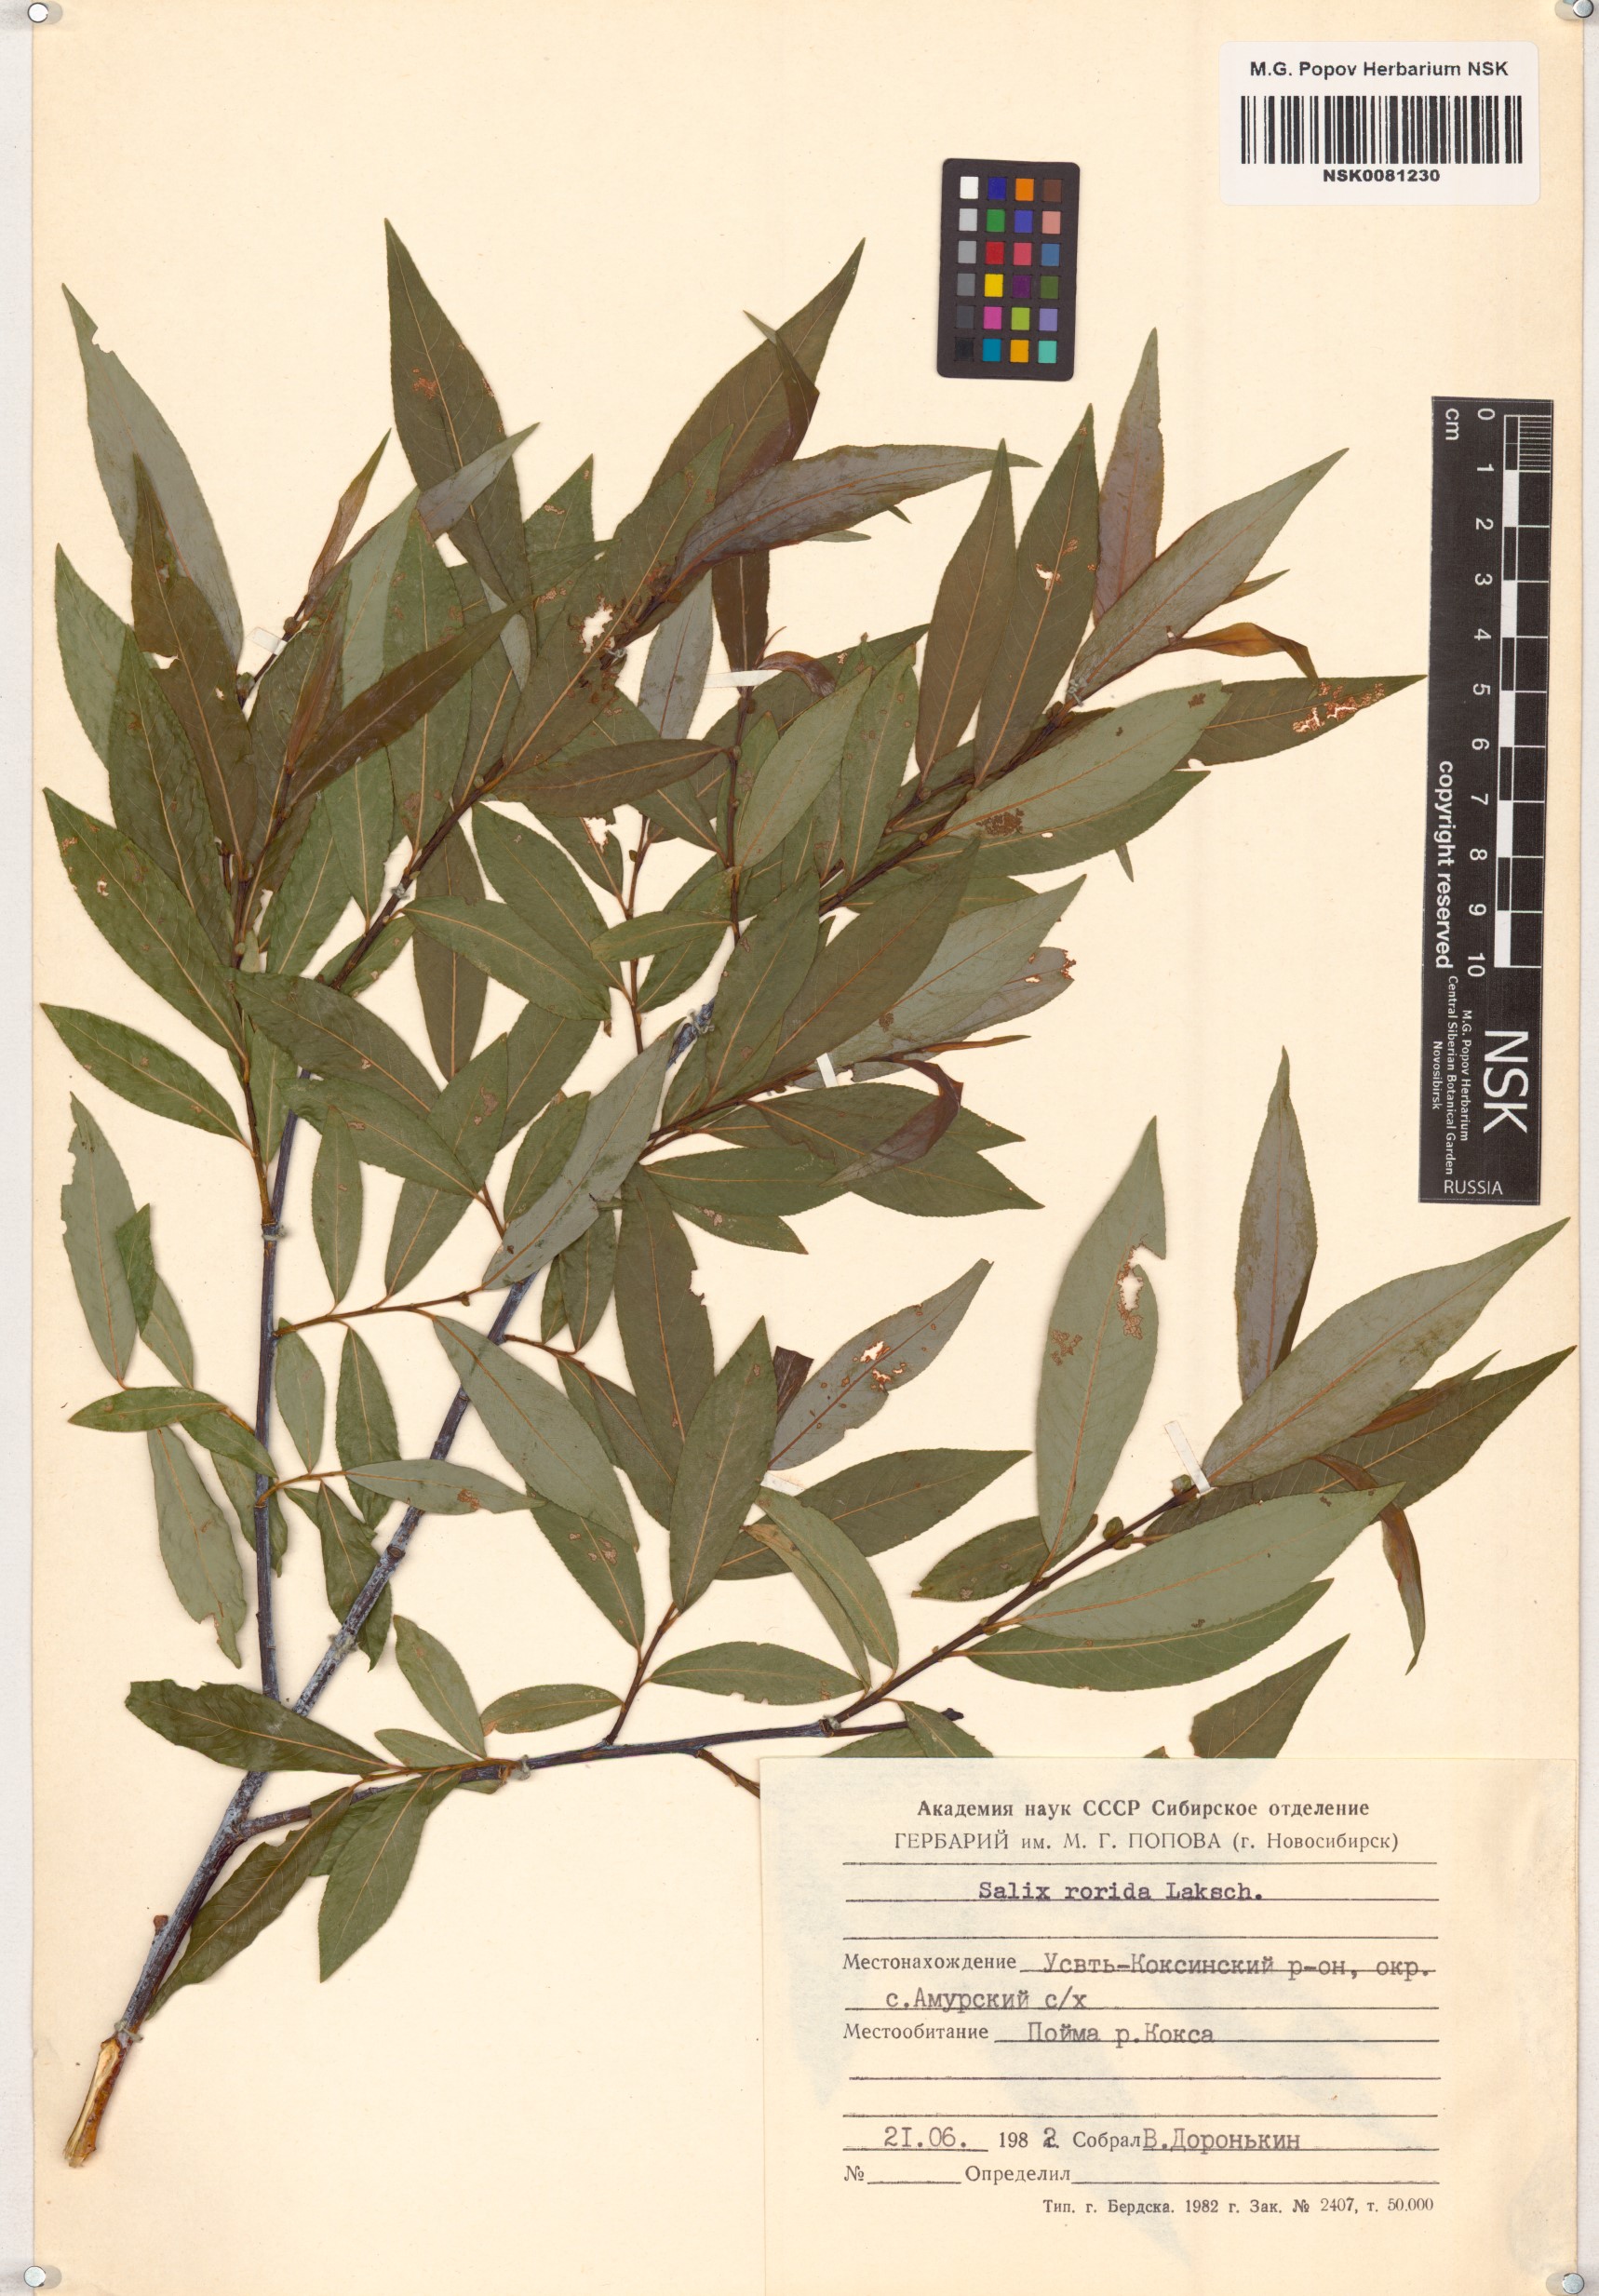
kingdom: Plantae
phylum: Tracheophyta
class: Magnoliopsida
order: Malpighiales
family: Salicaceae
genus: Salix
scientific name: Salix rorida
